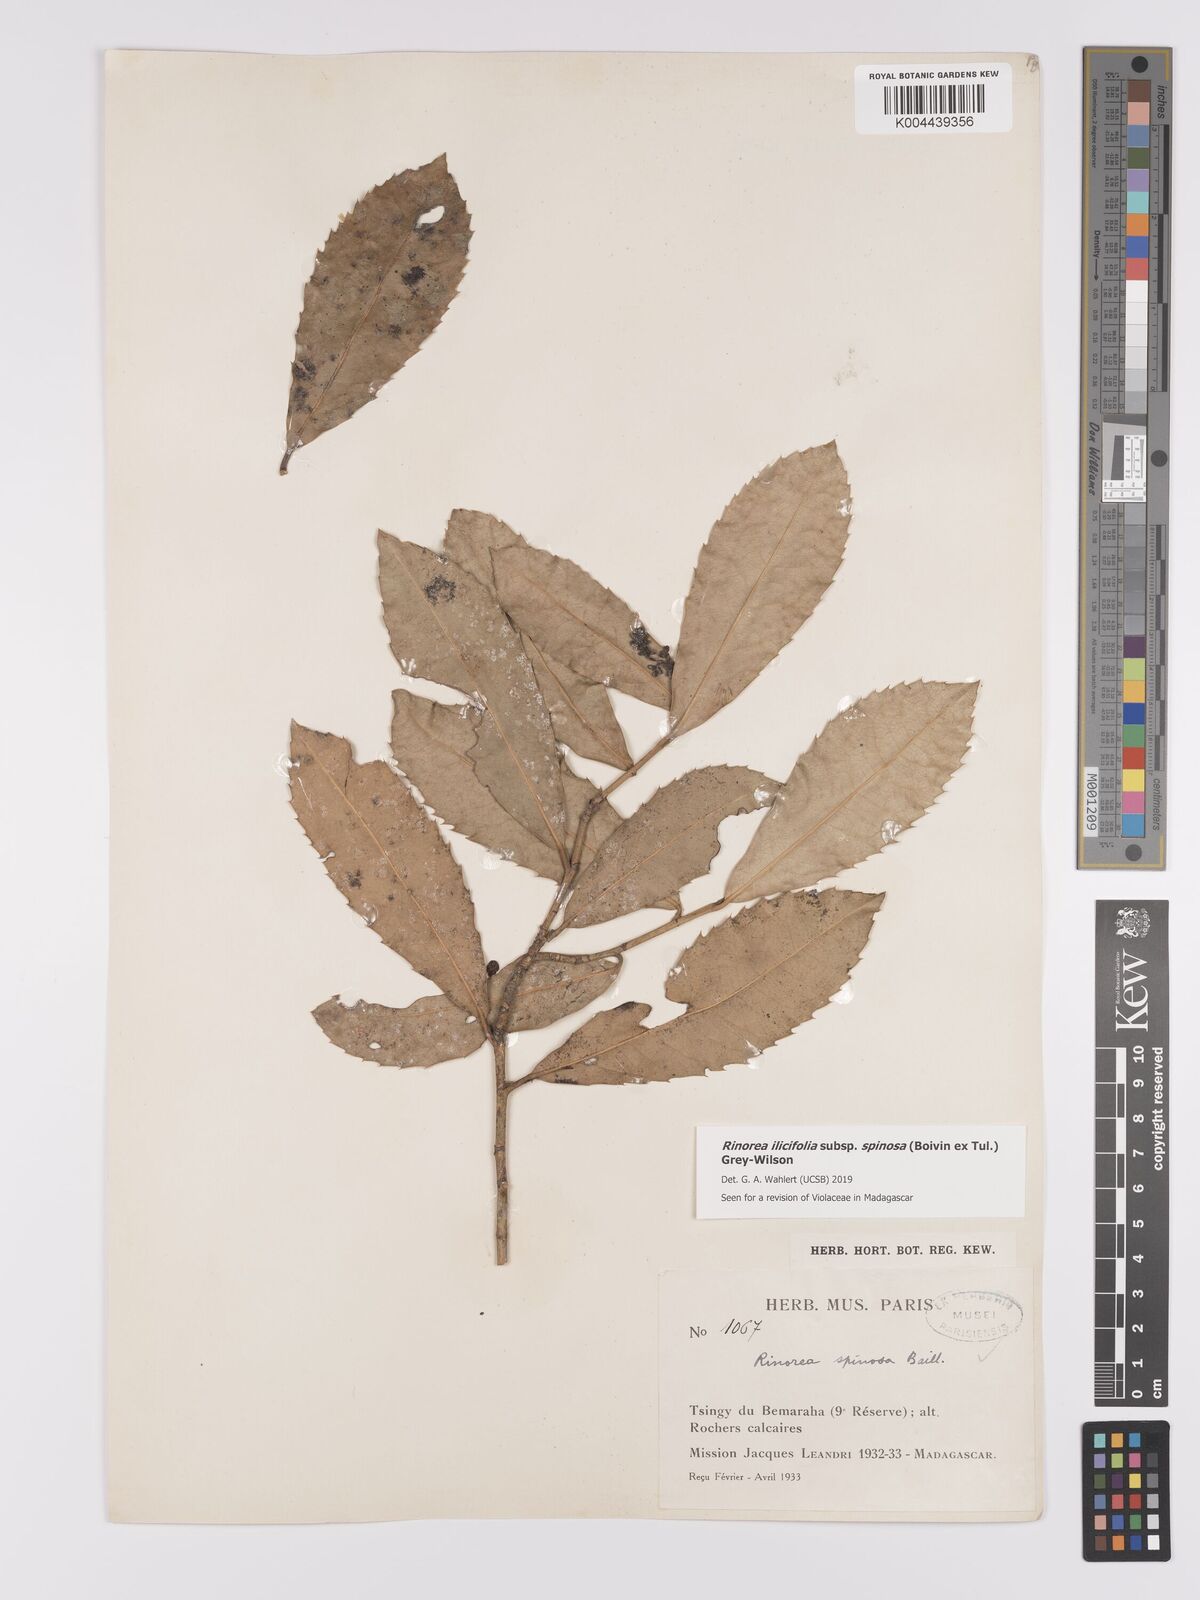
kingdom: Plantae
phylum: Tracheophyta
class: Magnoliopsida
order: Malpighiales
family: Violaceae
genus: Rinorea
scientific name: Rinorea spinosa
